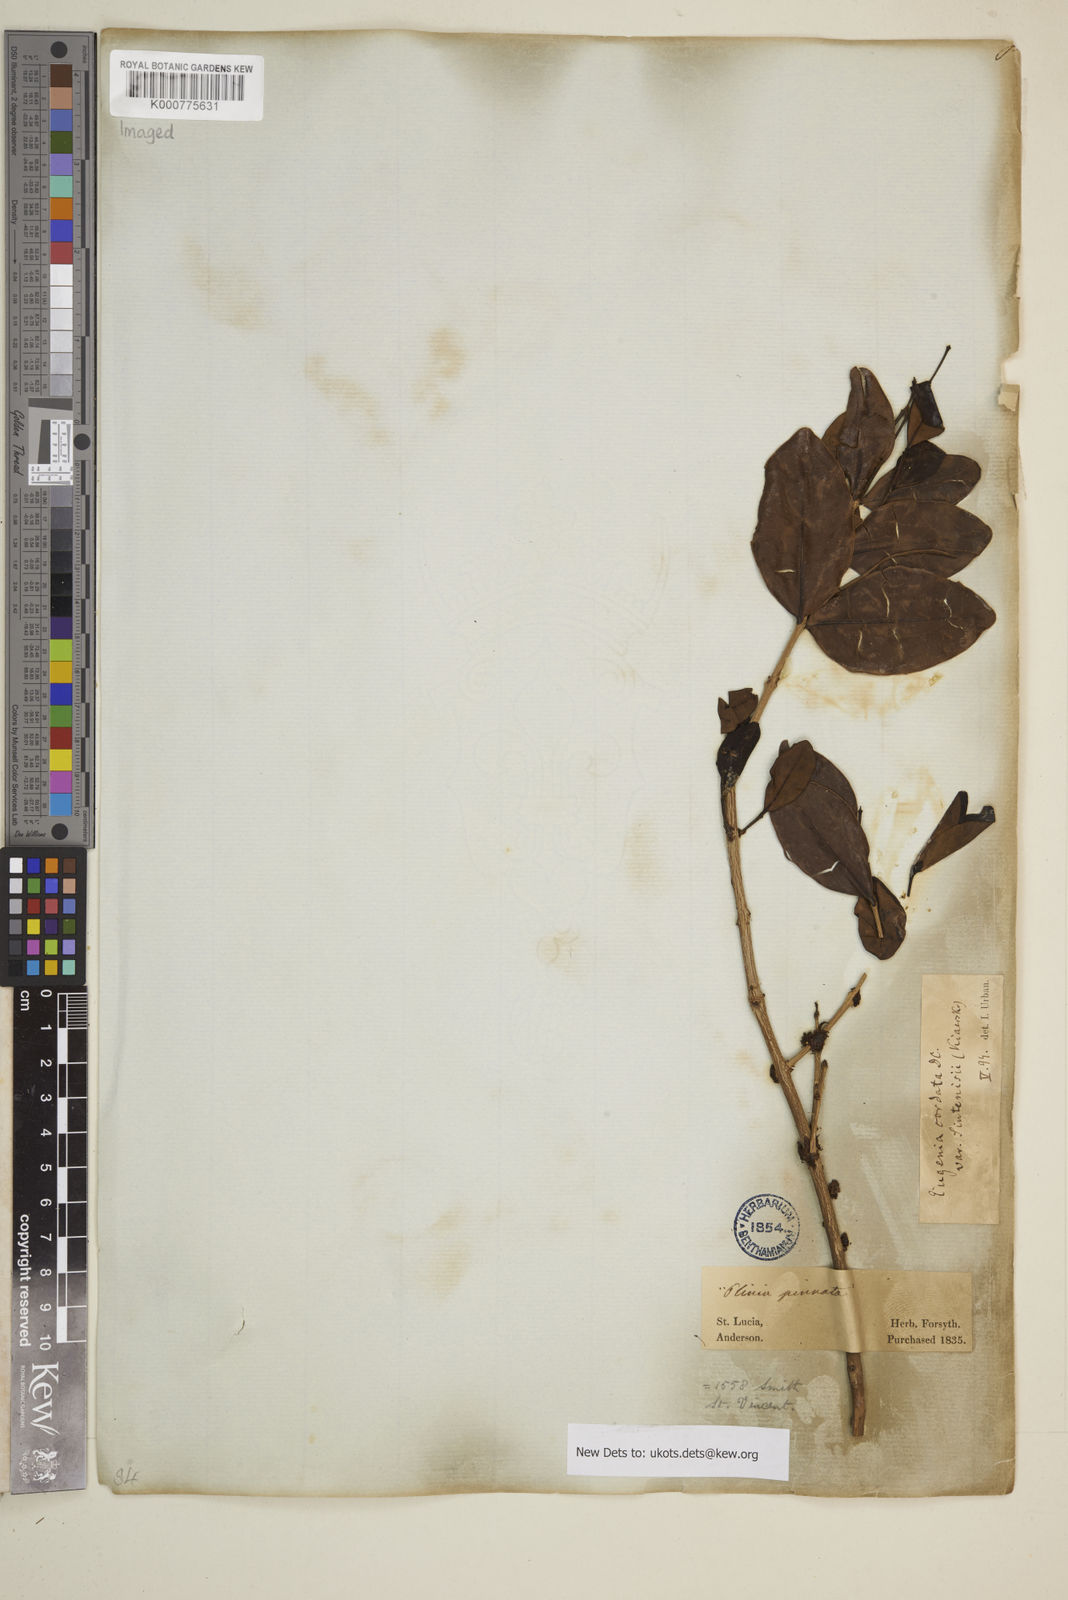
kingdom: Plantae
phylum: Tracheophyta
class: Magnoliopsida
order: Myrtales
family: Myrtaceae
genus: Eugenia
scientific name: Eugenia cordata
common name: Lathberry
